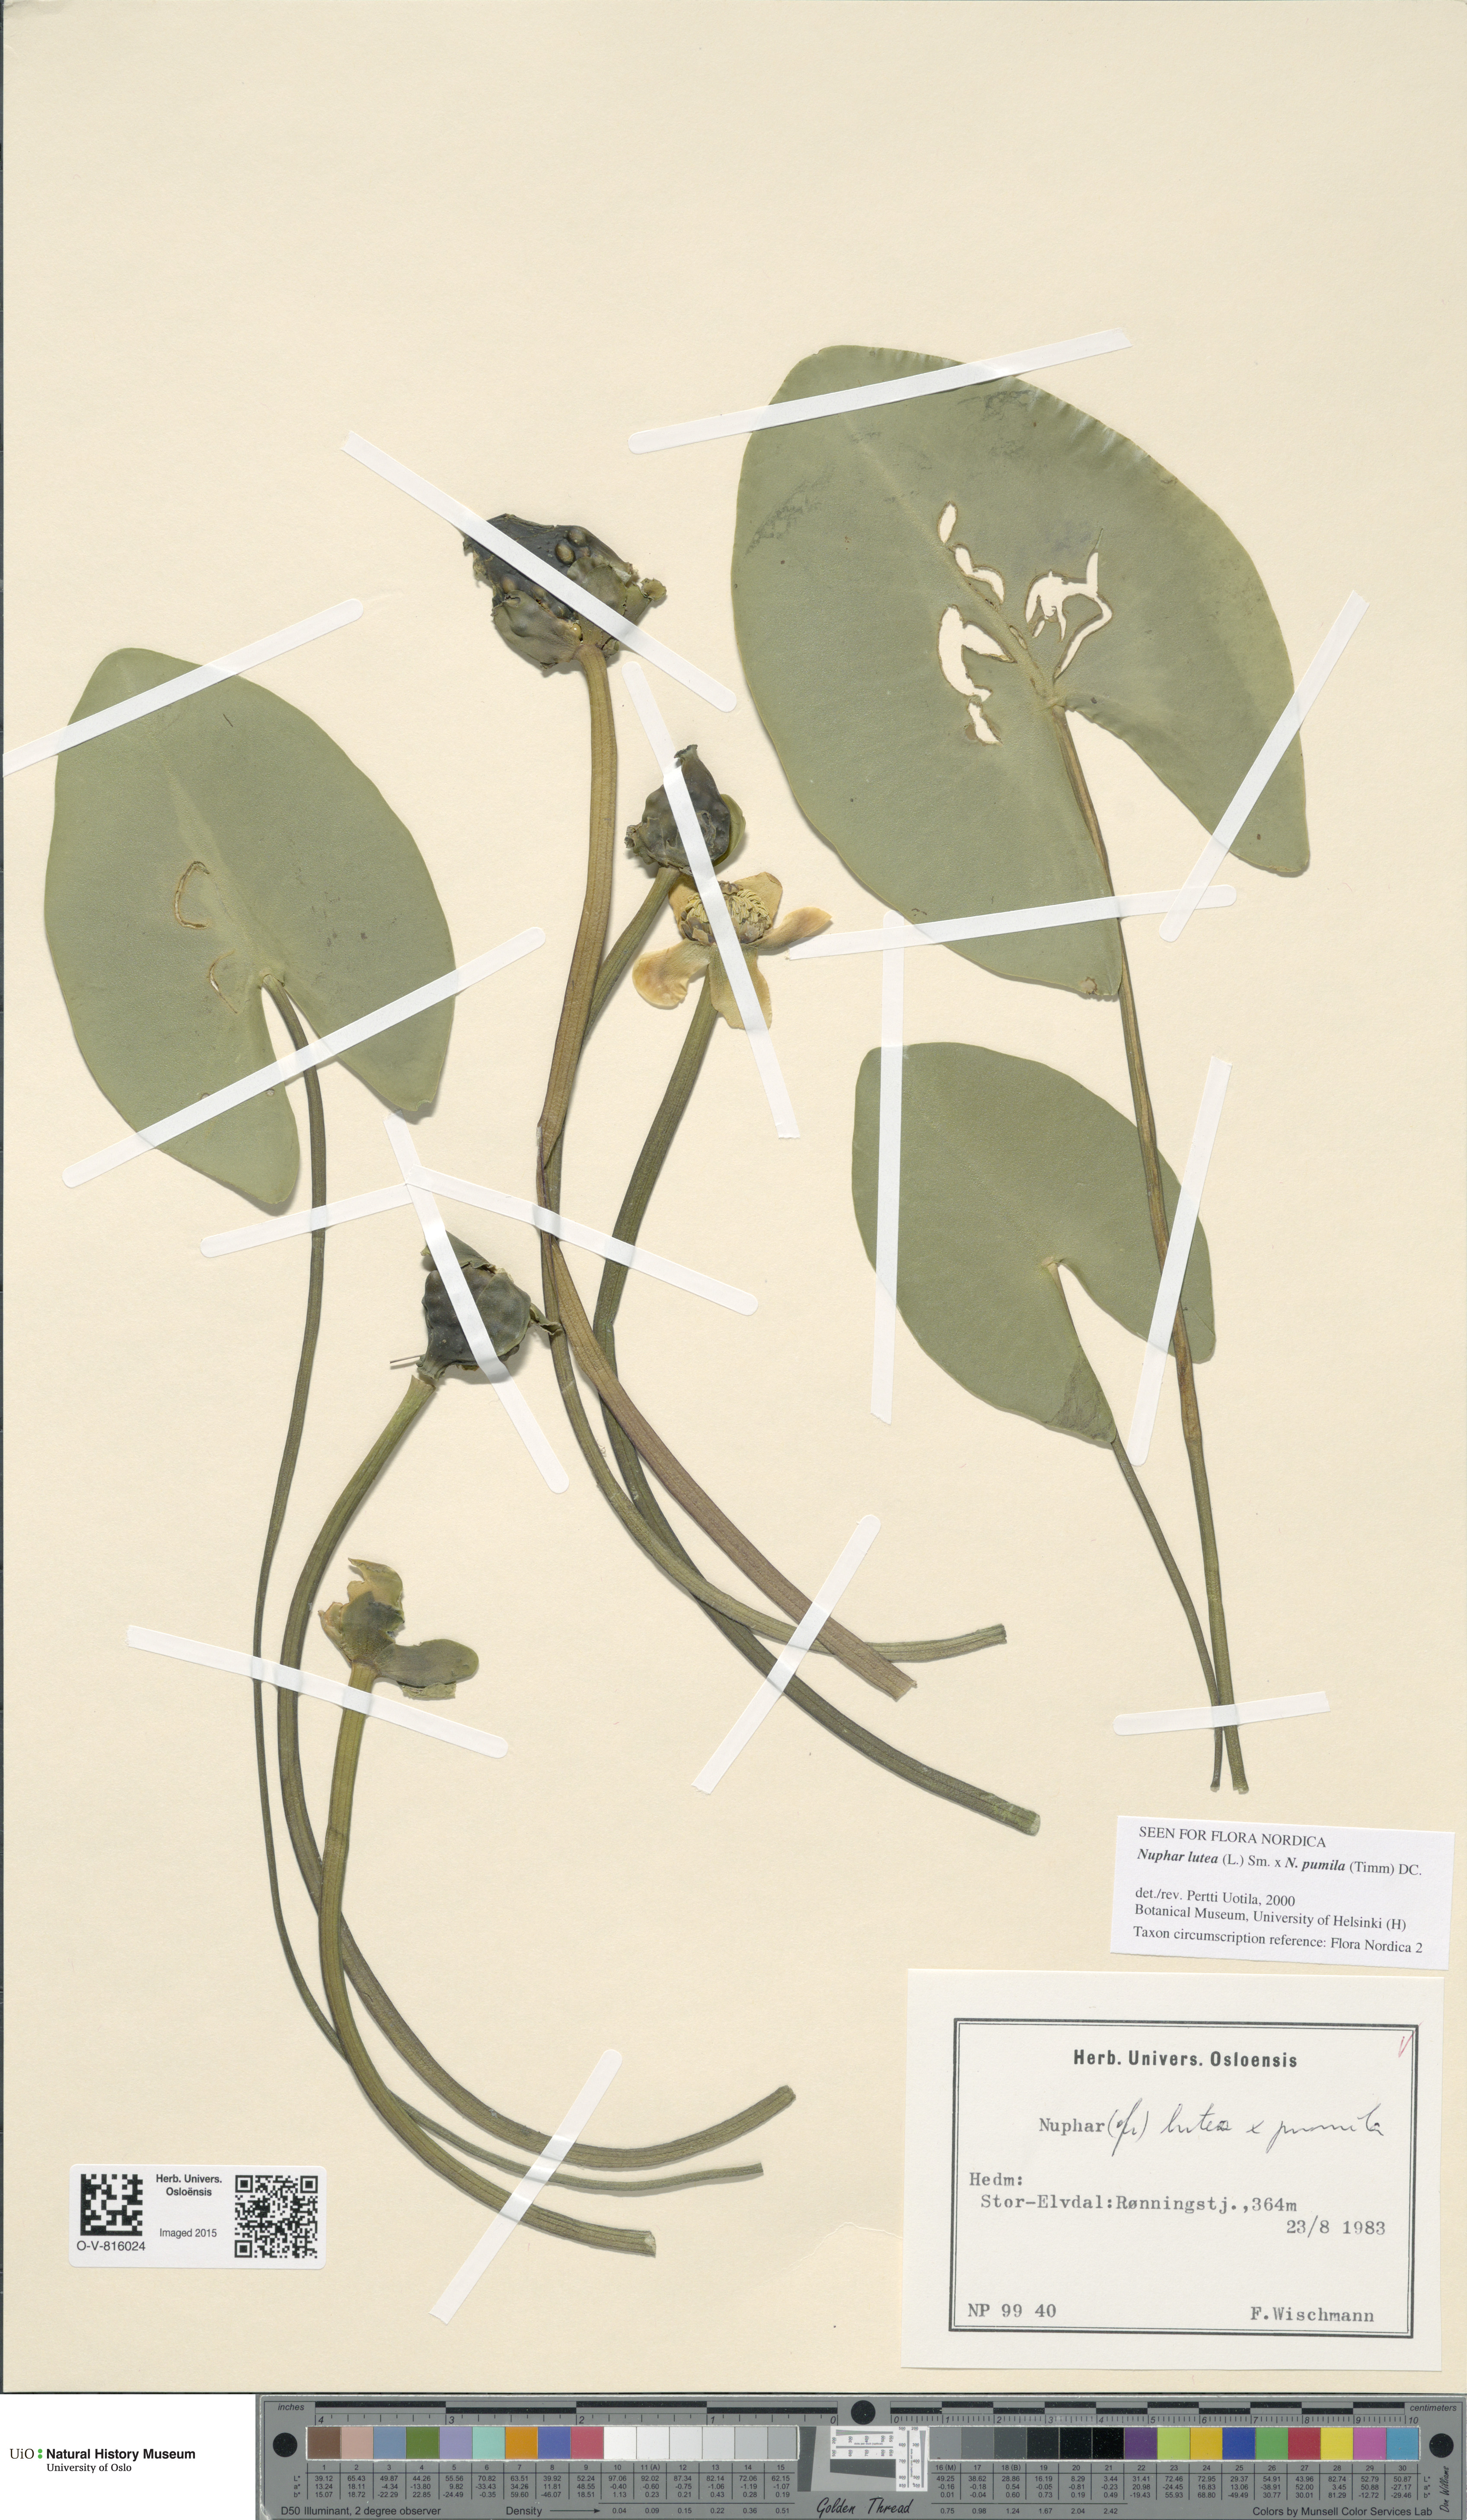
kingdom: Plantae
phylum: Tracheophyta
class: Magnoliopsida
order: Nymphaeales
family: Nymphaeaceae
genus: Nuphar
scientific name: Nuphar
